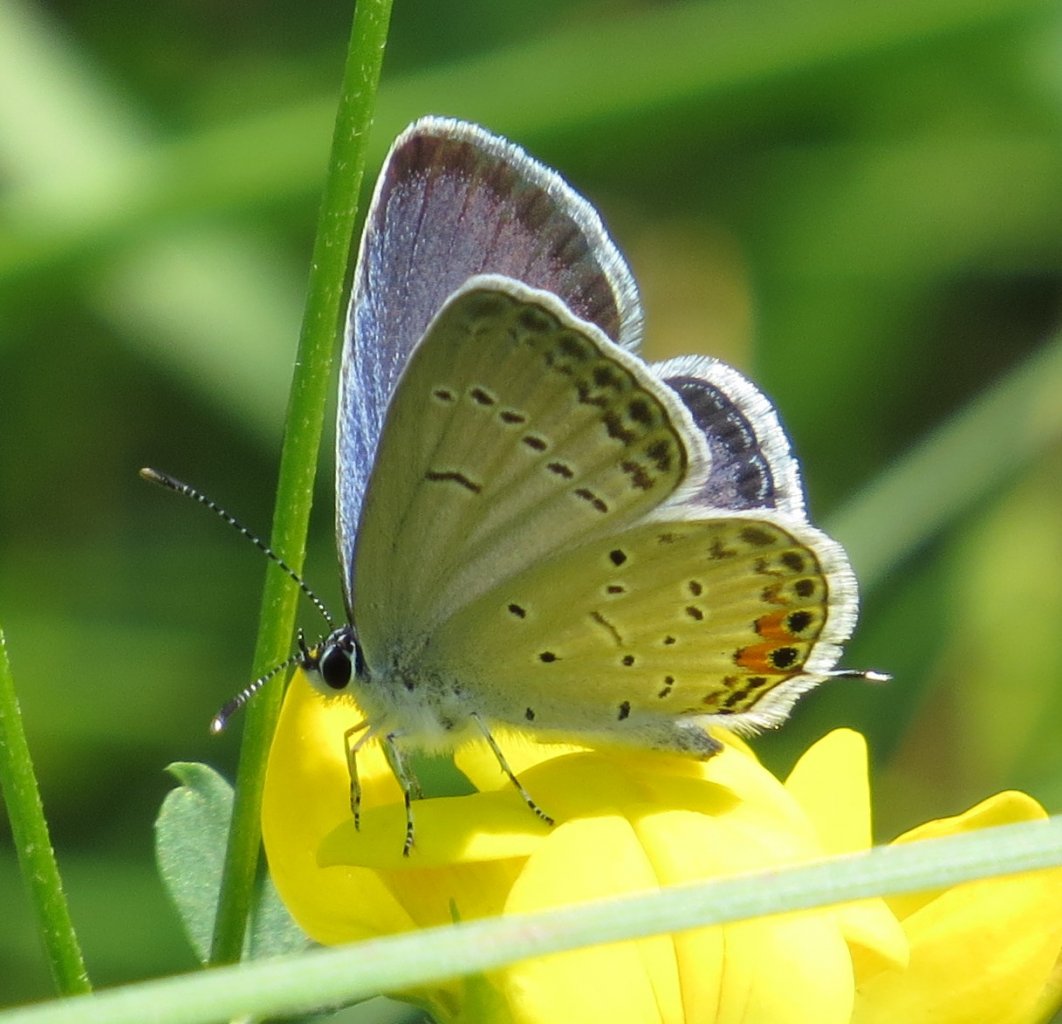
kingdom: Animalia
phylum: Arthropoda
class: Insecta
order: Lepidoptera
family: Lycaenidae
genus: Elkalyce
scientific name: Elkalyce comyntas
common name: Eastern Tailed-Blue
